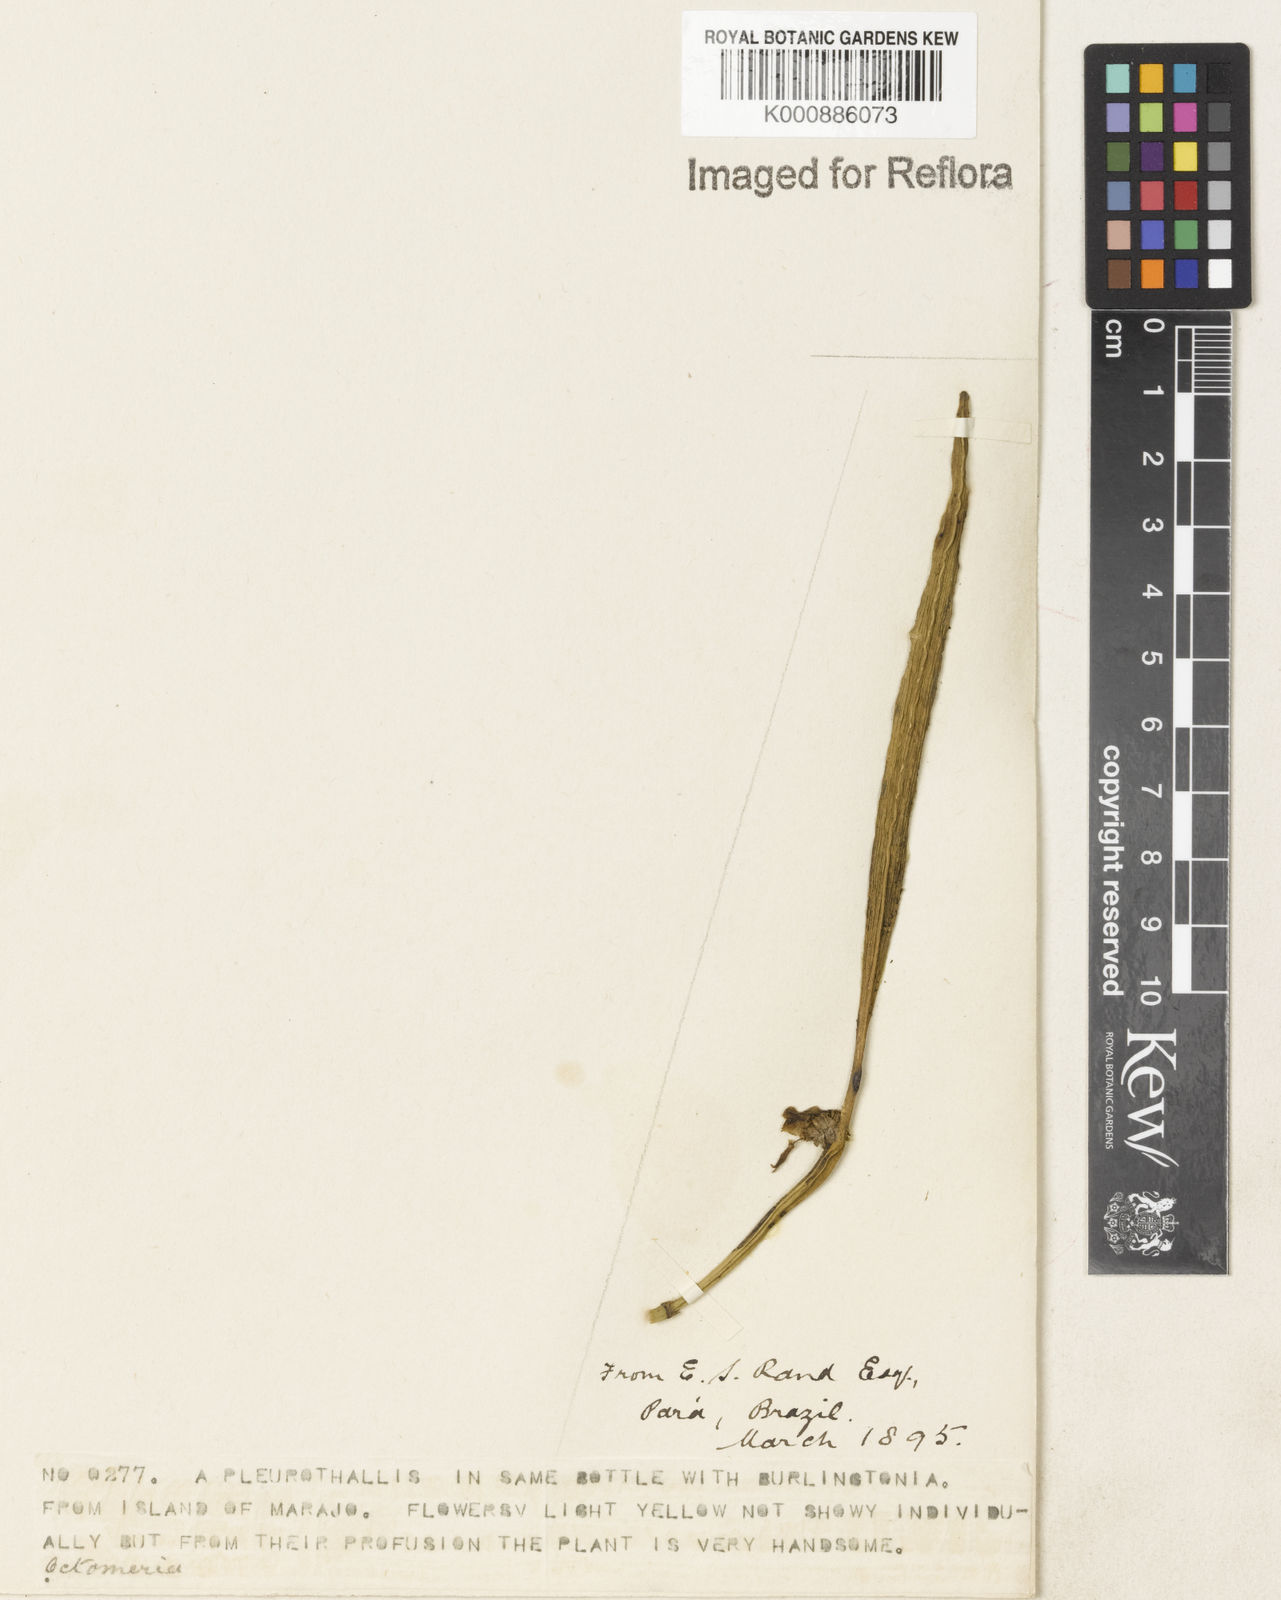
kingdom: Plantae
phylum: Tracheophyta
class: Liliopsida
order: Asparagales
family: Orchidaceae
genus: Octomeria
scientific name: Octomeria
